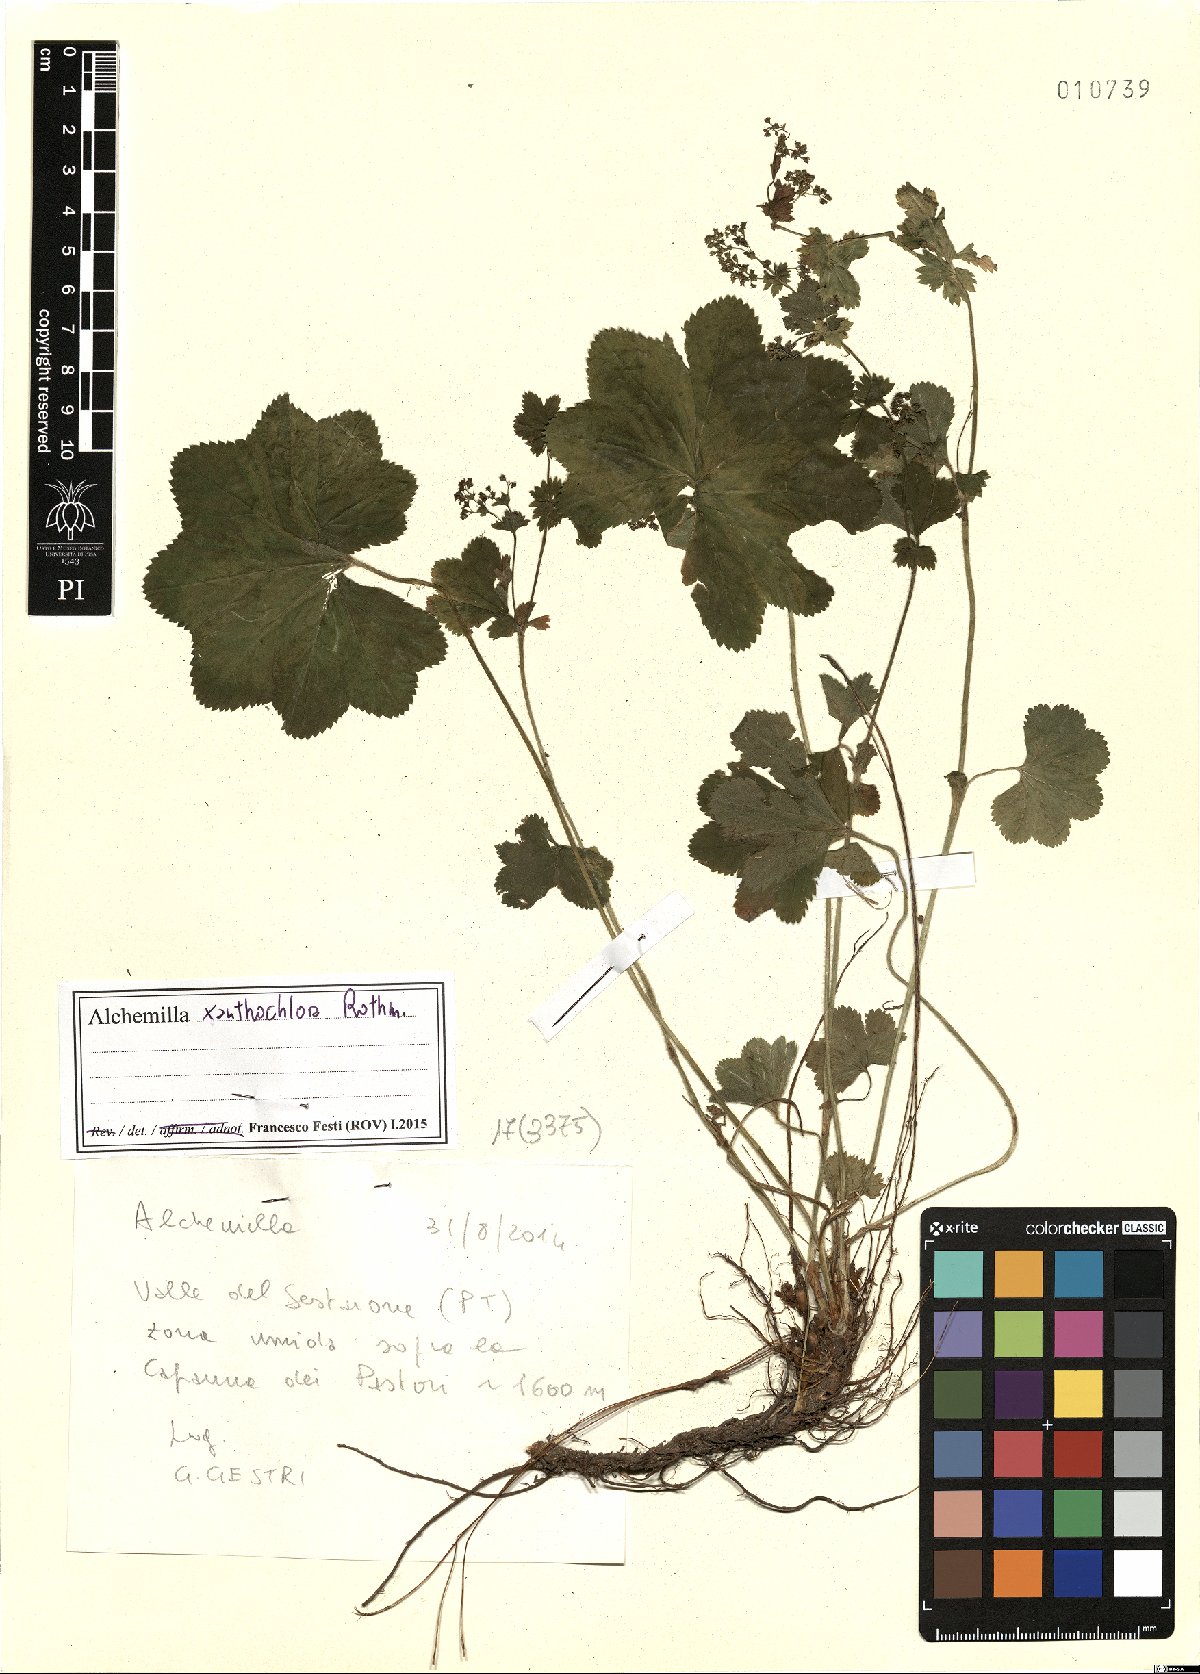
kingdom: Plantae
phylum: Tracheophyta
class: Magnoliopsida
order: Rosales
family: Rosaceae
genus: Alchemilla
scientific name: Alchemilla xanthochlora
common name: Intermediate lady's-mantle
